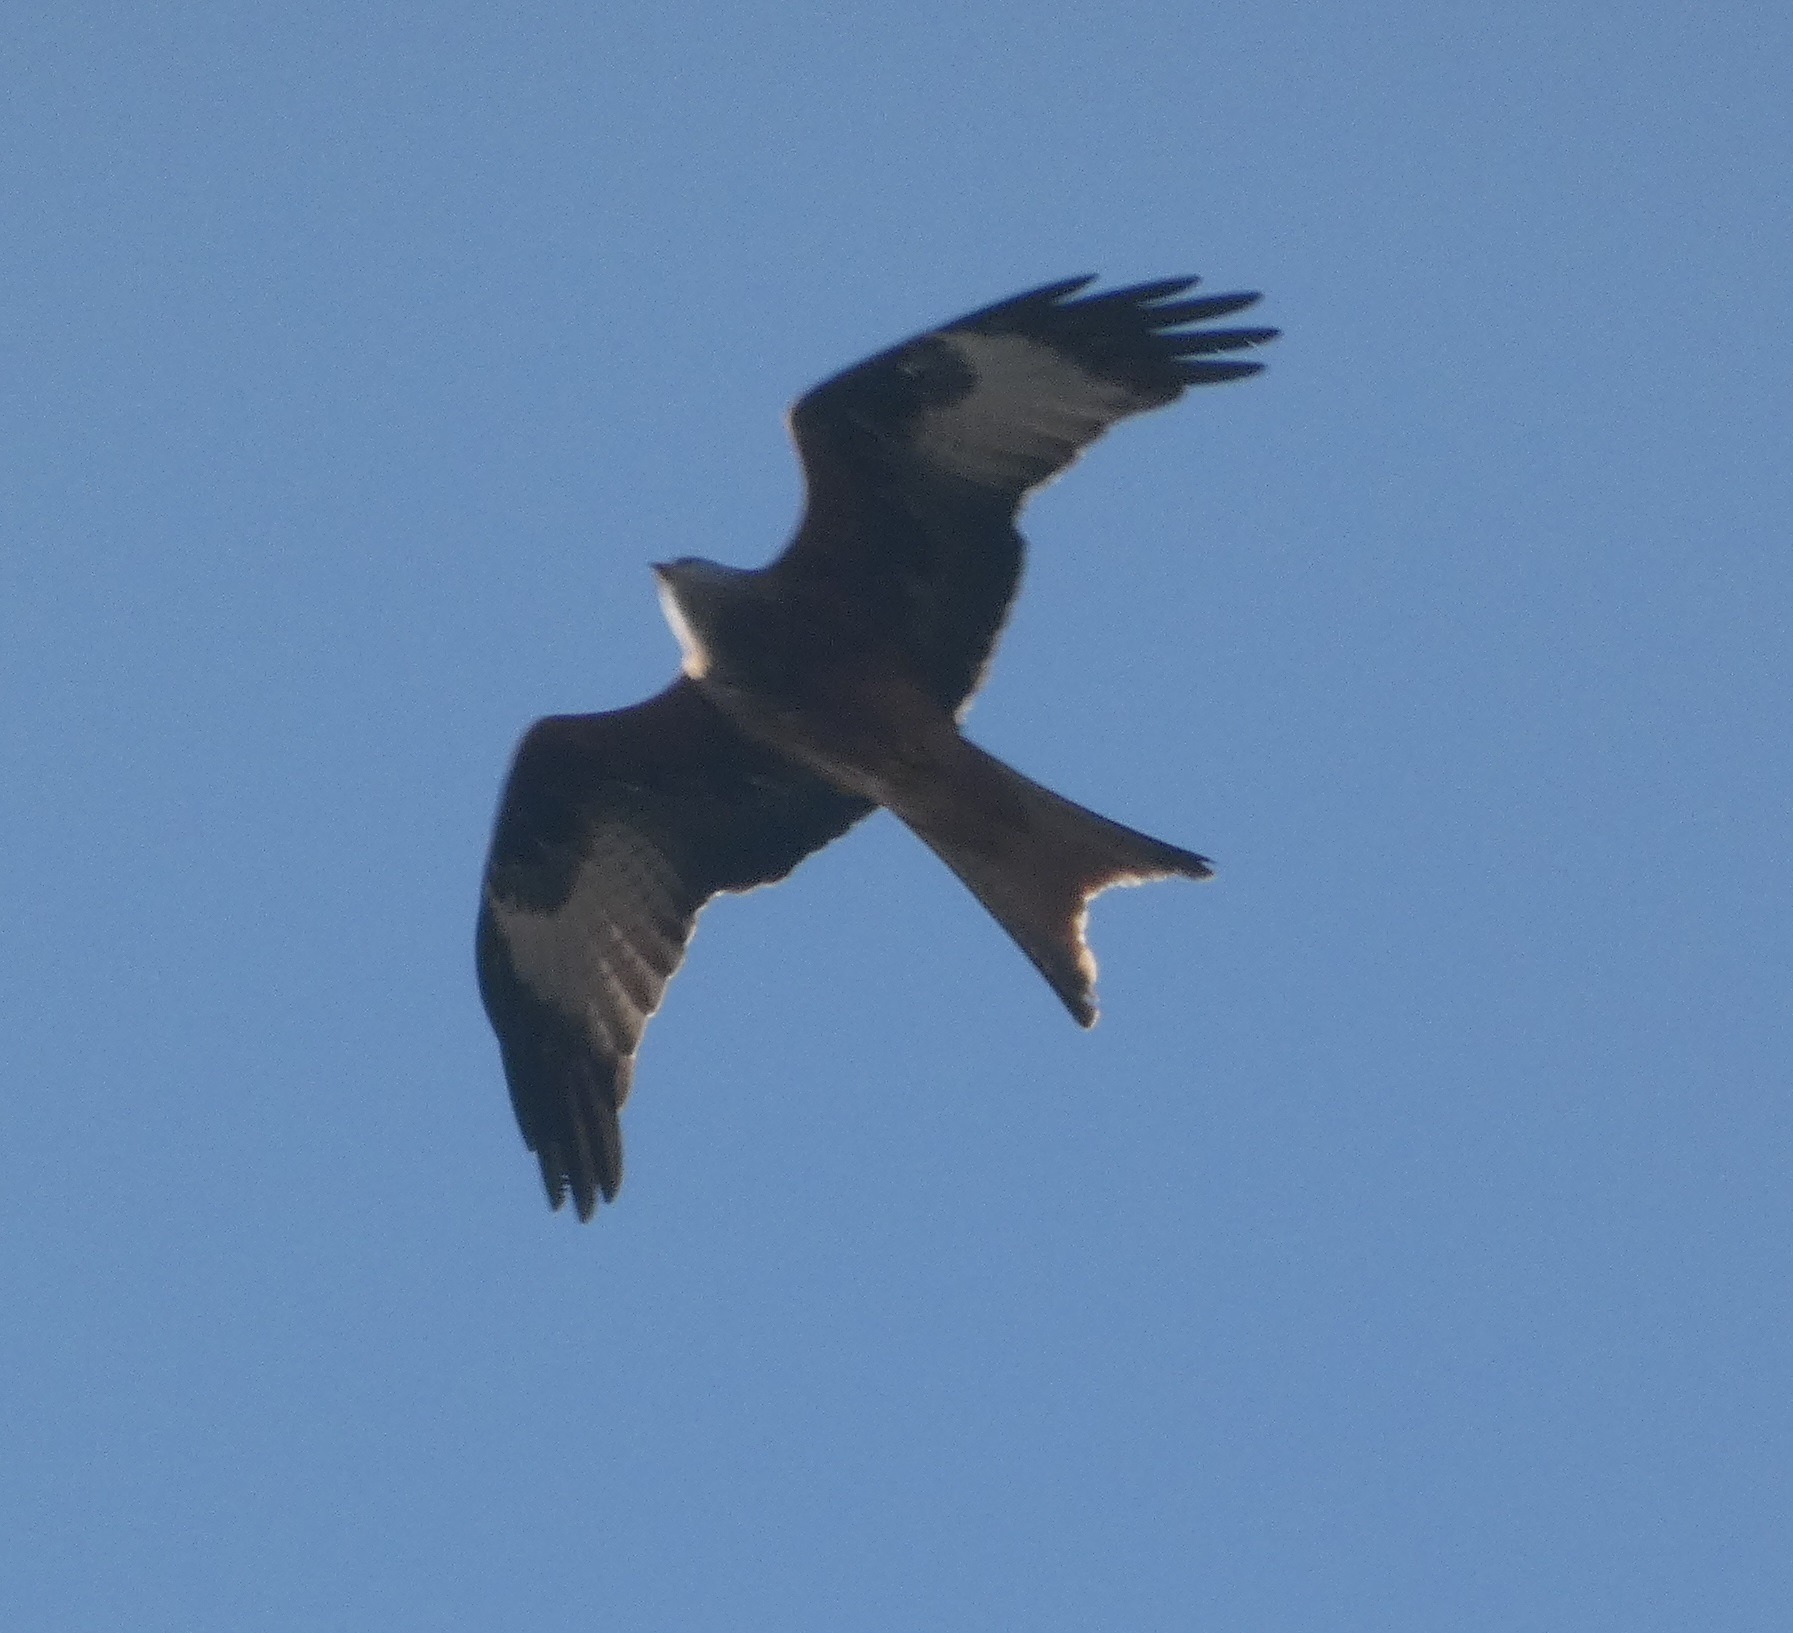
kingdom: Animalia
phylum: Chordata
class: Aves
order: Accipitriformes
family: Accipitridae
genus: Milvus
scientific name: Milvus milvus
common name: Rød glente
